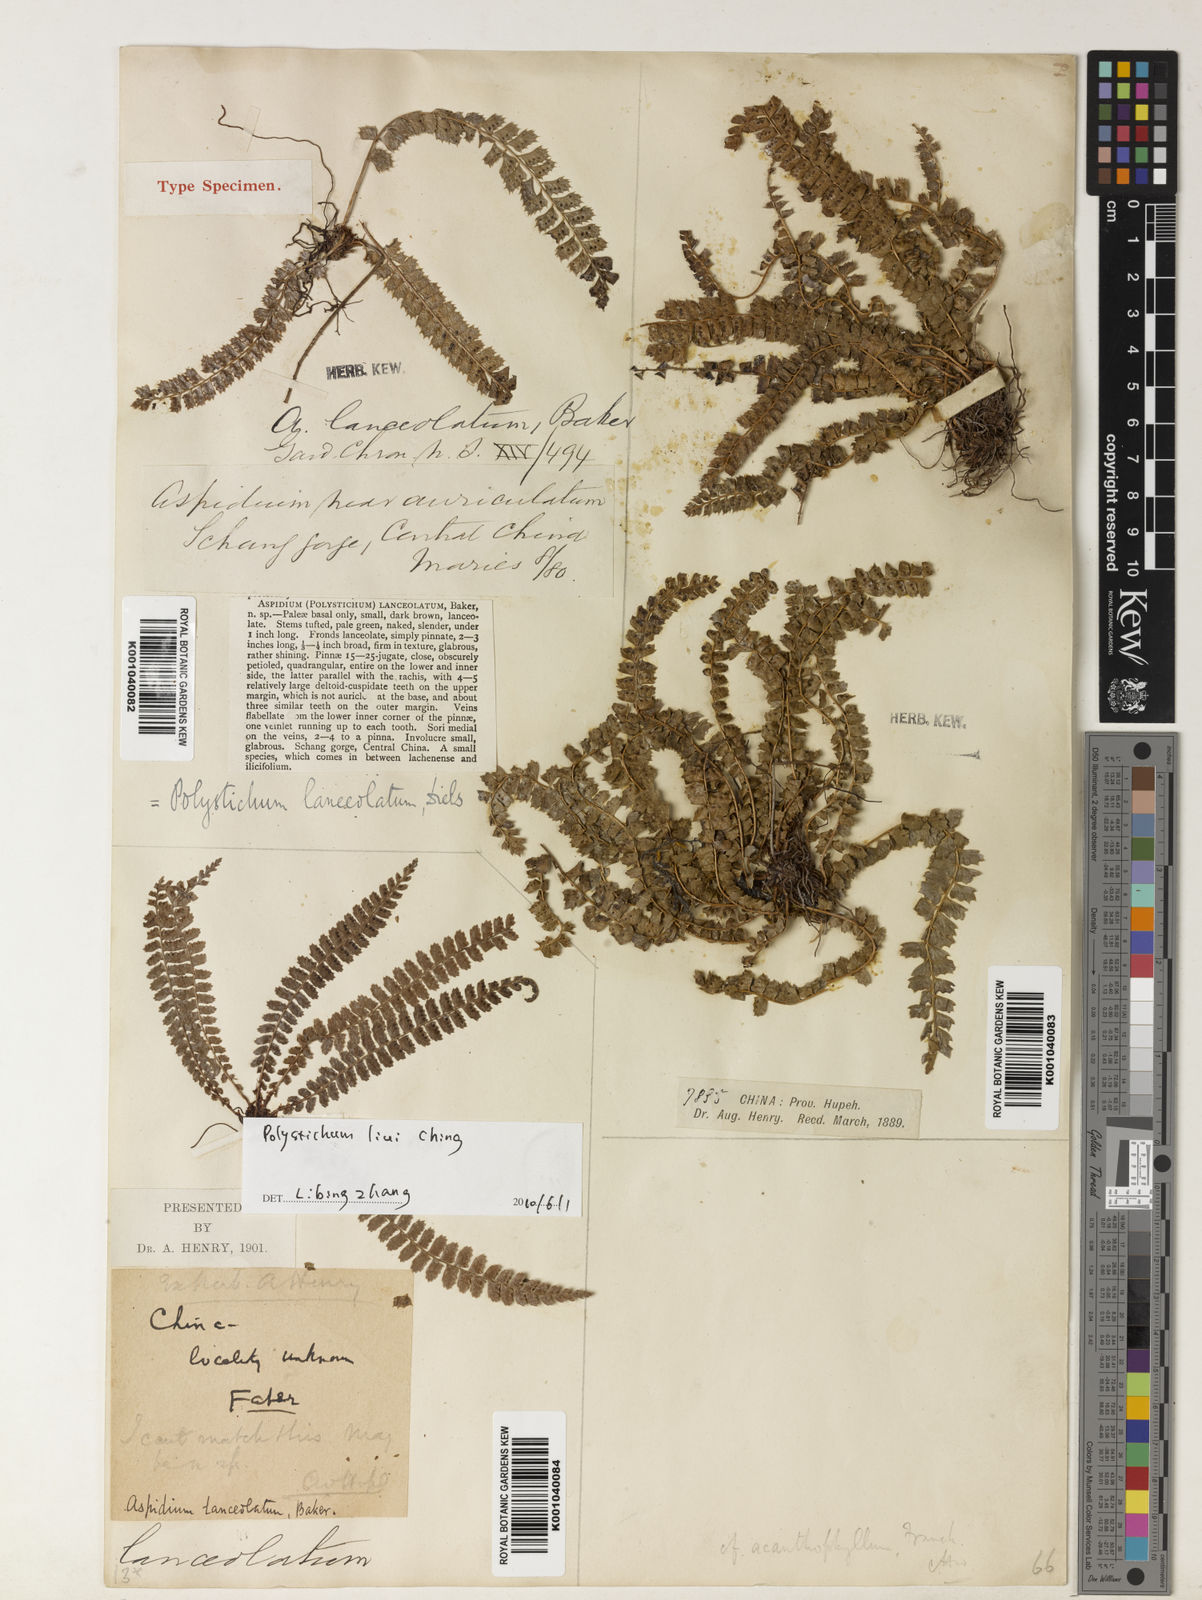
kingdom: Plantae
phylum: Tracheophyta
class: Polypodiopsida
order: Polypodiales
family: Dryopteridaceae
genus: Polystichum
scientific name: Polystichum lanceolatum
